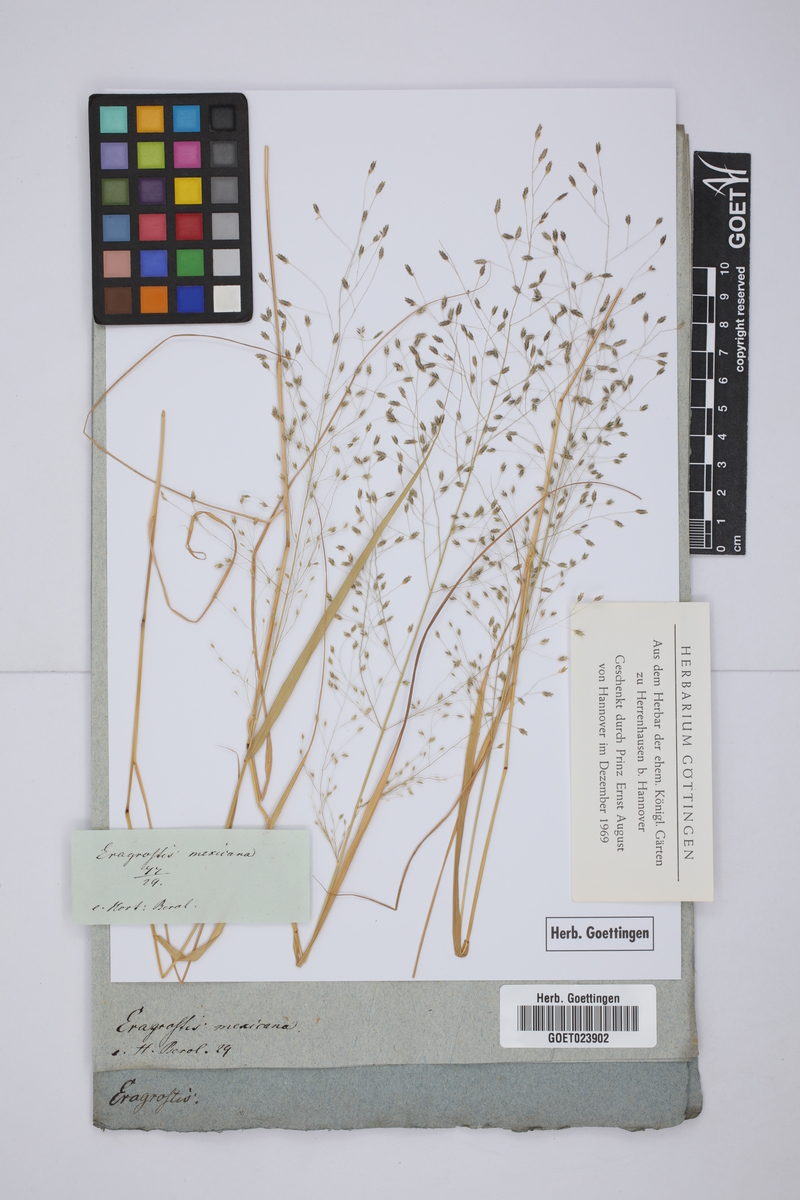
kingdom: Plantae
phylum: Tracheophyta
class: Liliopsida
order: Poales
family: Poaceae
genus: Eragrostis
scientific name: Eragrostis mexicana
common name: Mexican love grass
